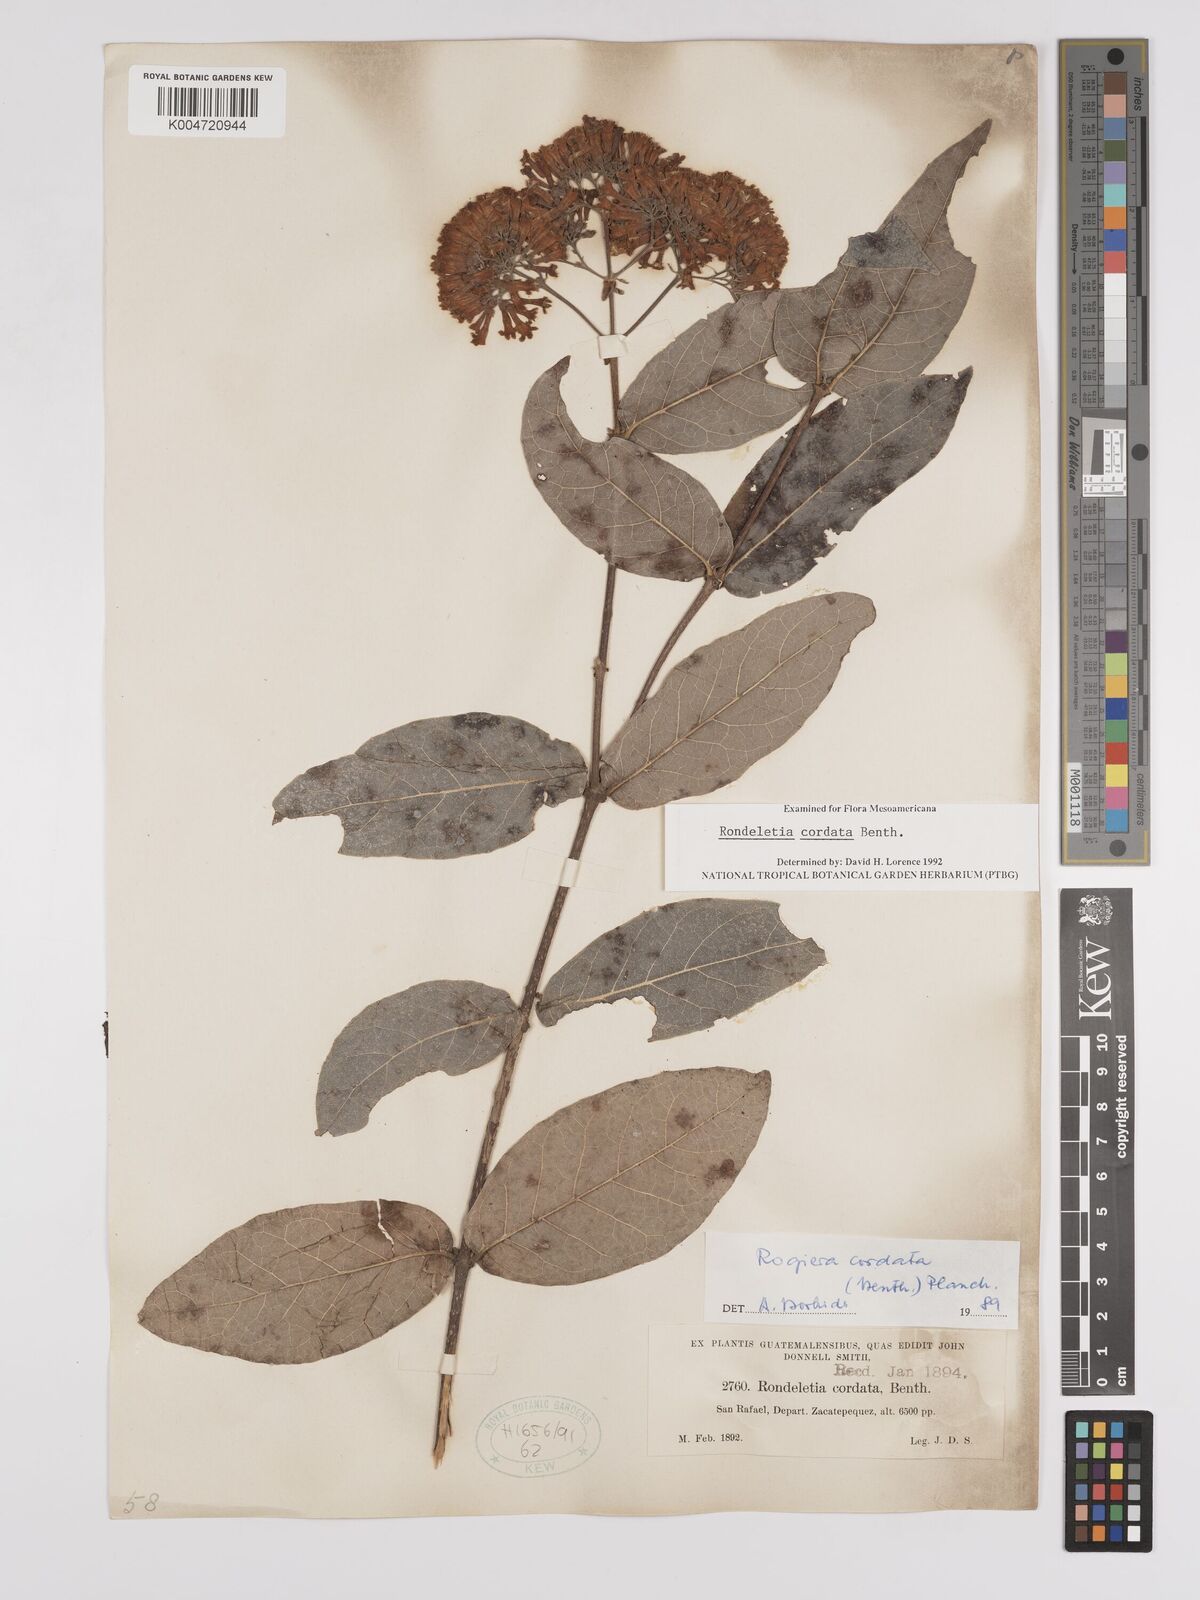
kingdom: Plantae
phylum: Tracheophyta
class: Magnoliopsida
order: Gentianales
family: Rubiaceae
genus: Rogiera
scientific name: Rogiera cordata
